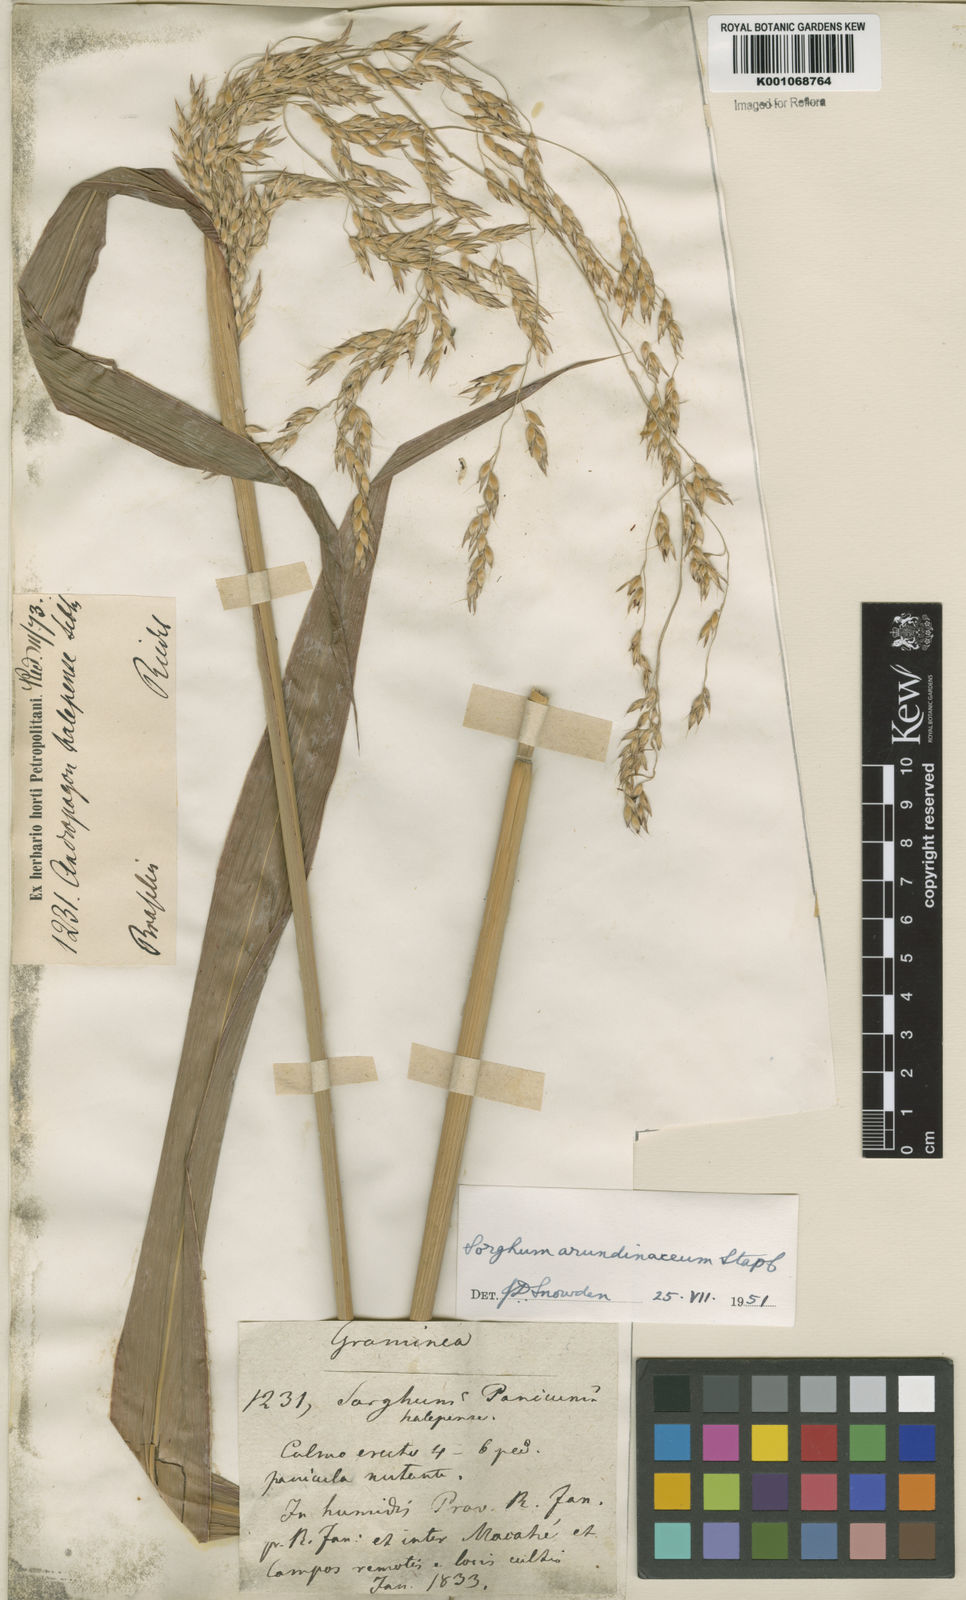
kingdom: Plantae
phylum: Tracheophyta
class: Liliopsida
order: Poales
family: Poaceae
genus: Sorghum
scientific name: Sorghum arundinaceum
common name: Sorghum
